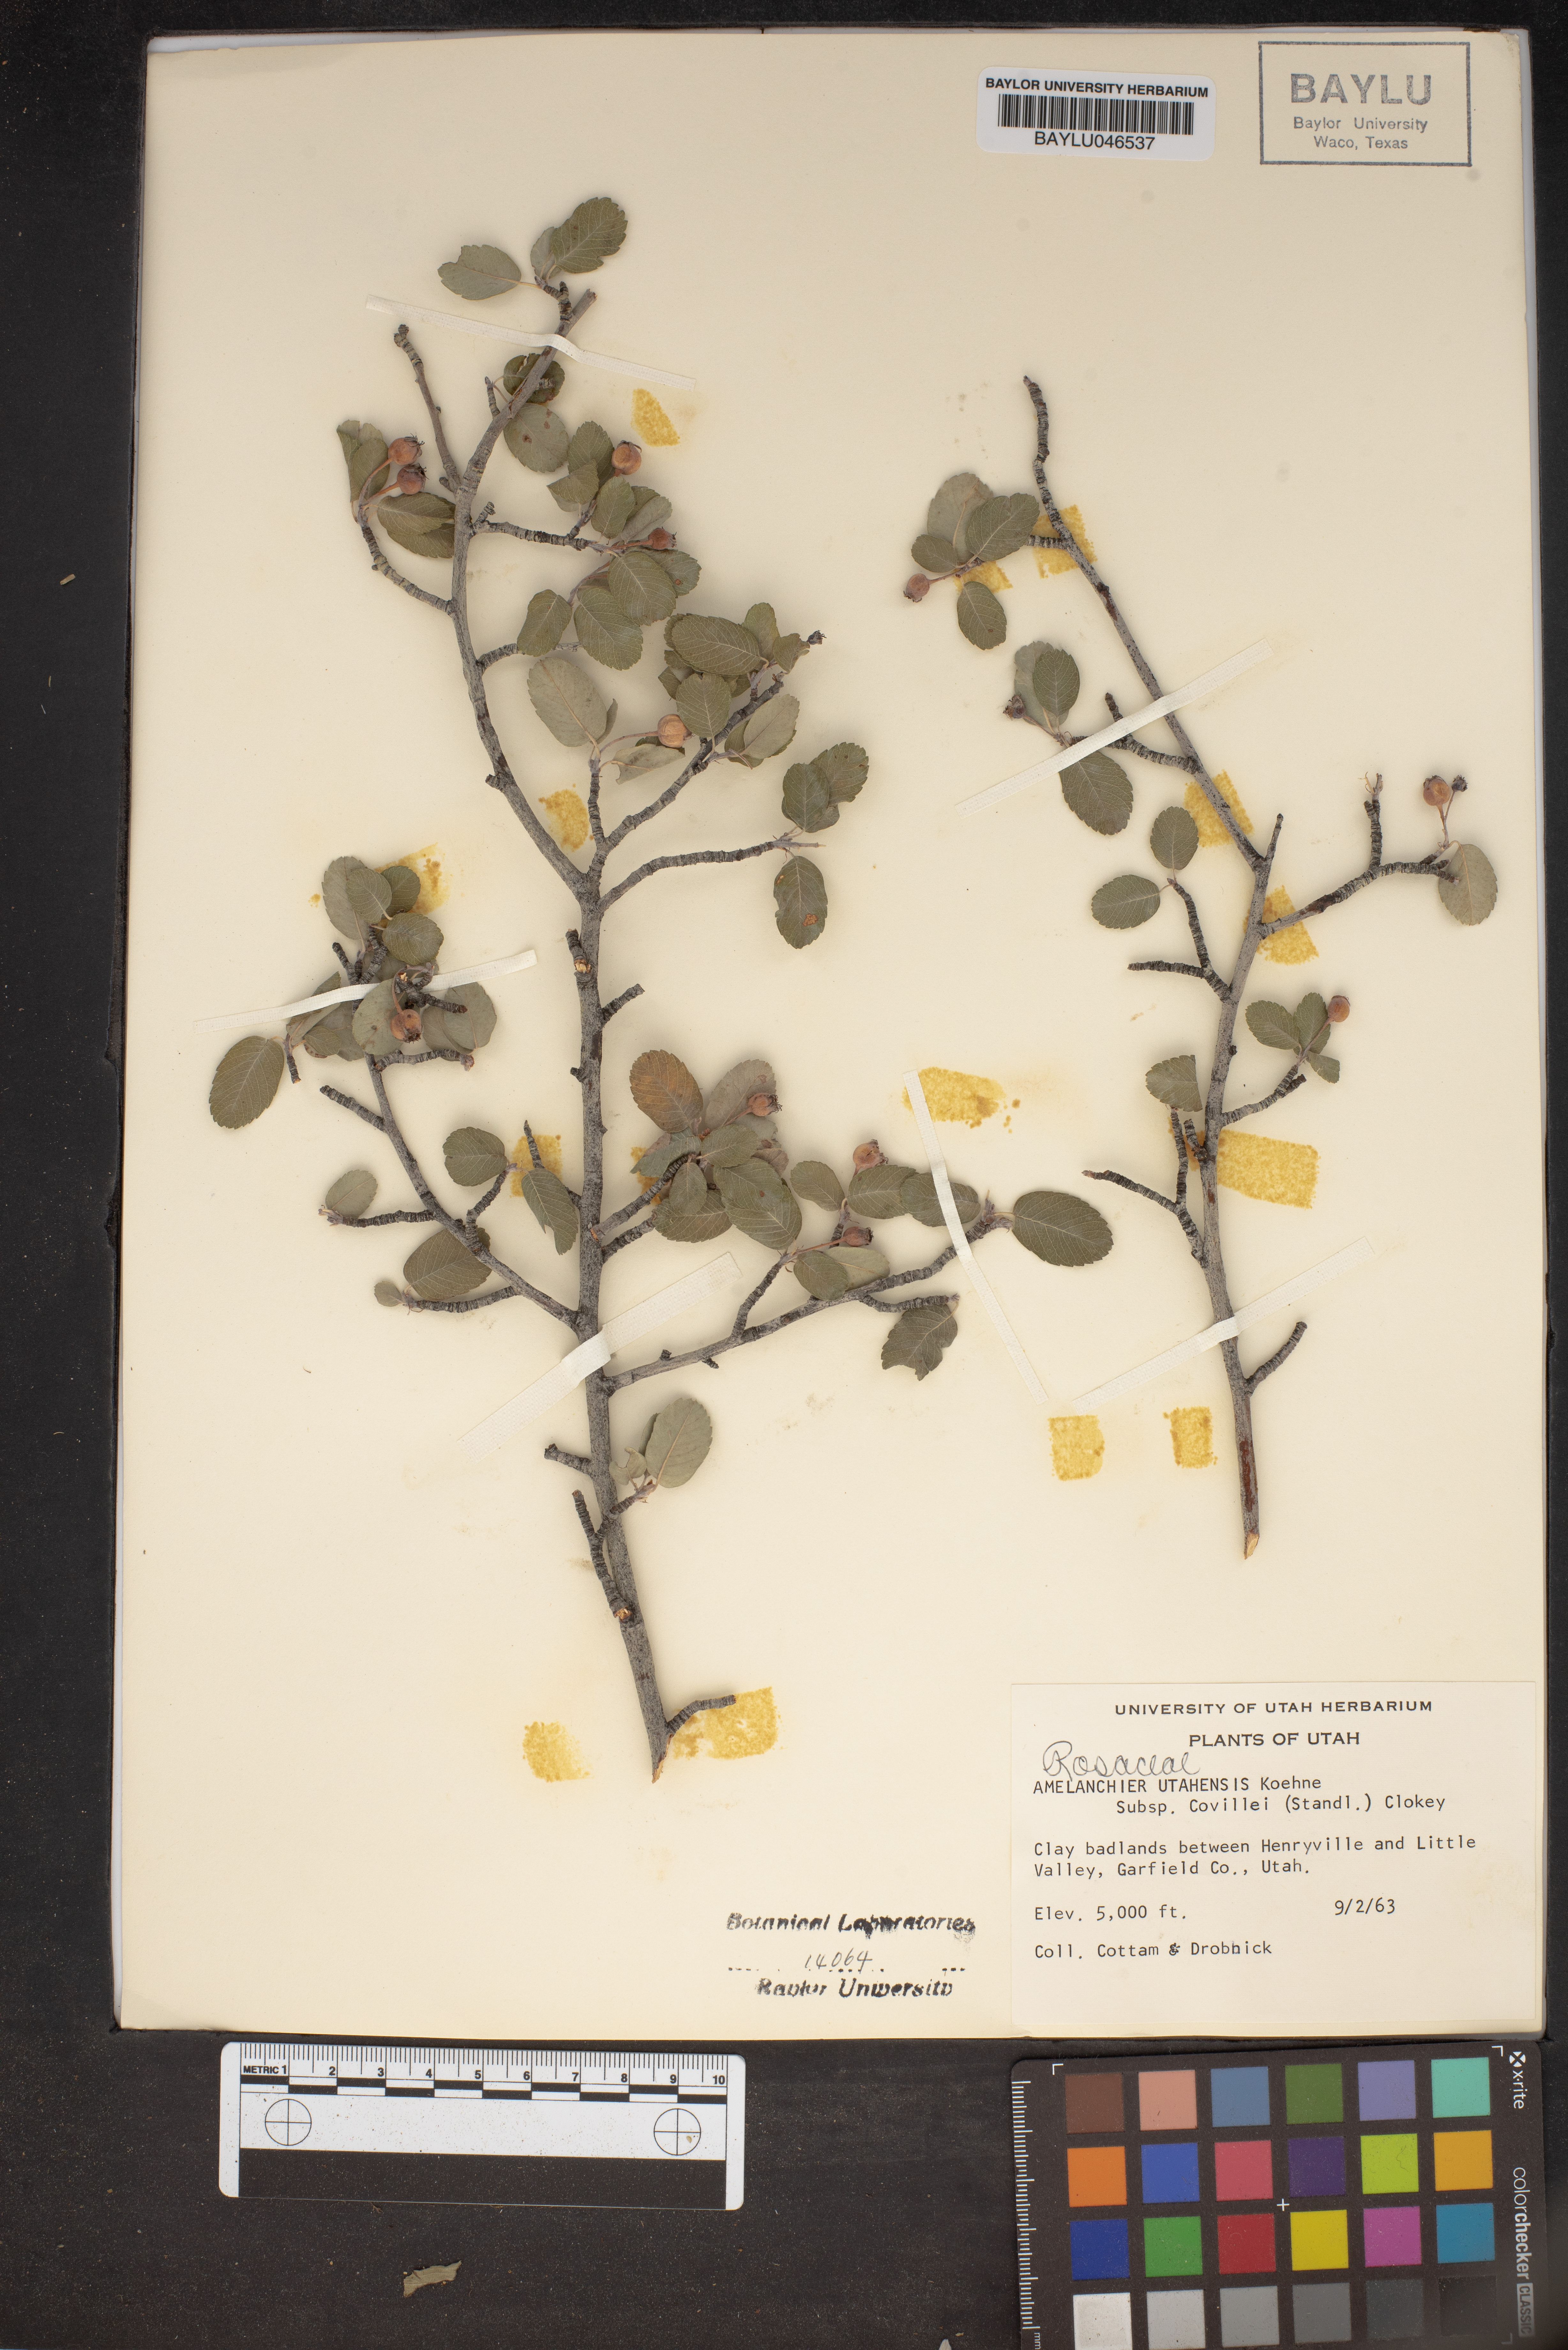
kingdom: Plantae
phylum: Tracheophyta
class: Magnoliopsida
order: Rosales
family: Rosaceae
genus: Amelanchier
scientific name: Amelanchier utahensis
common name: Utah serviceberry
